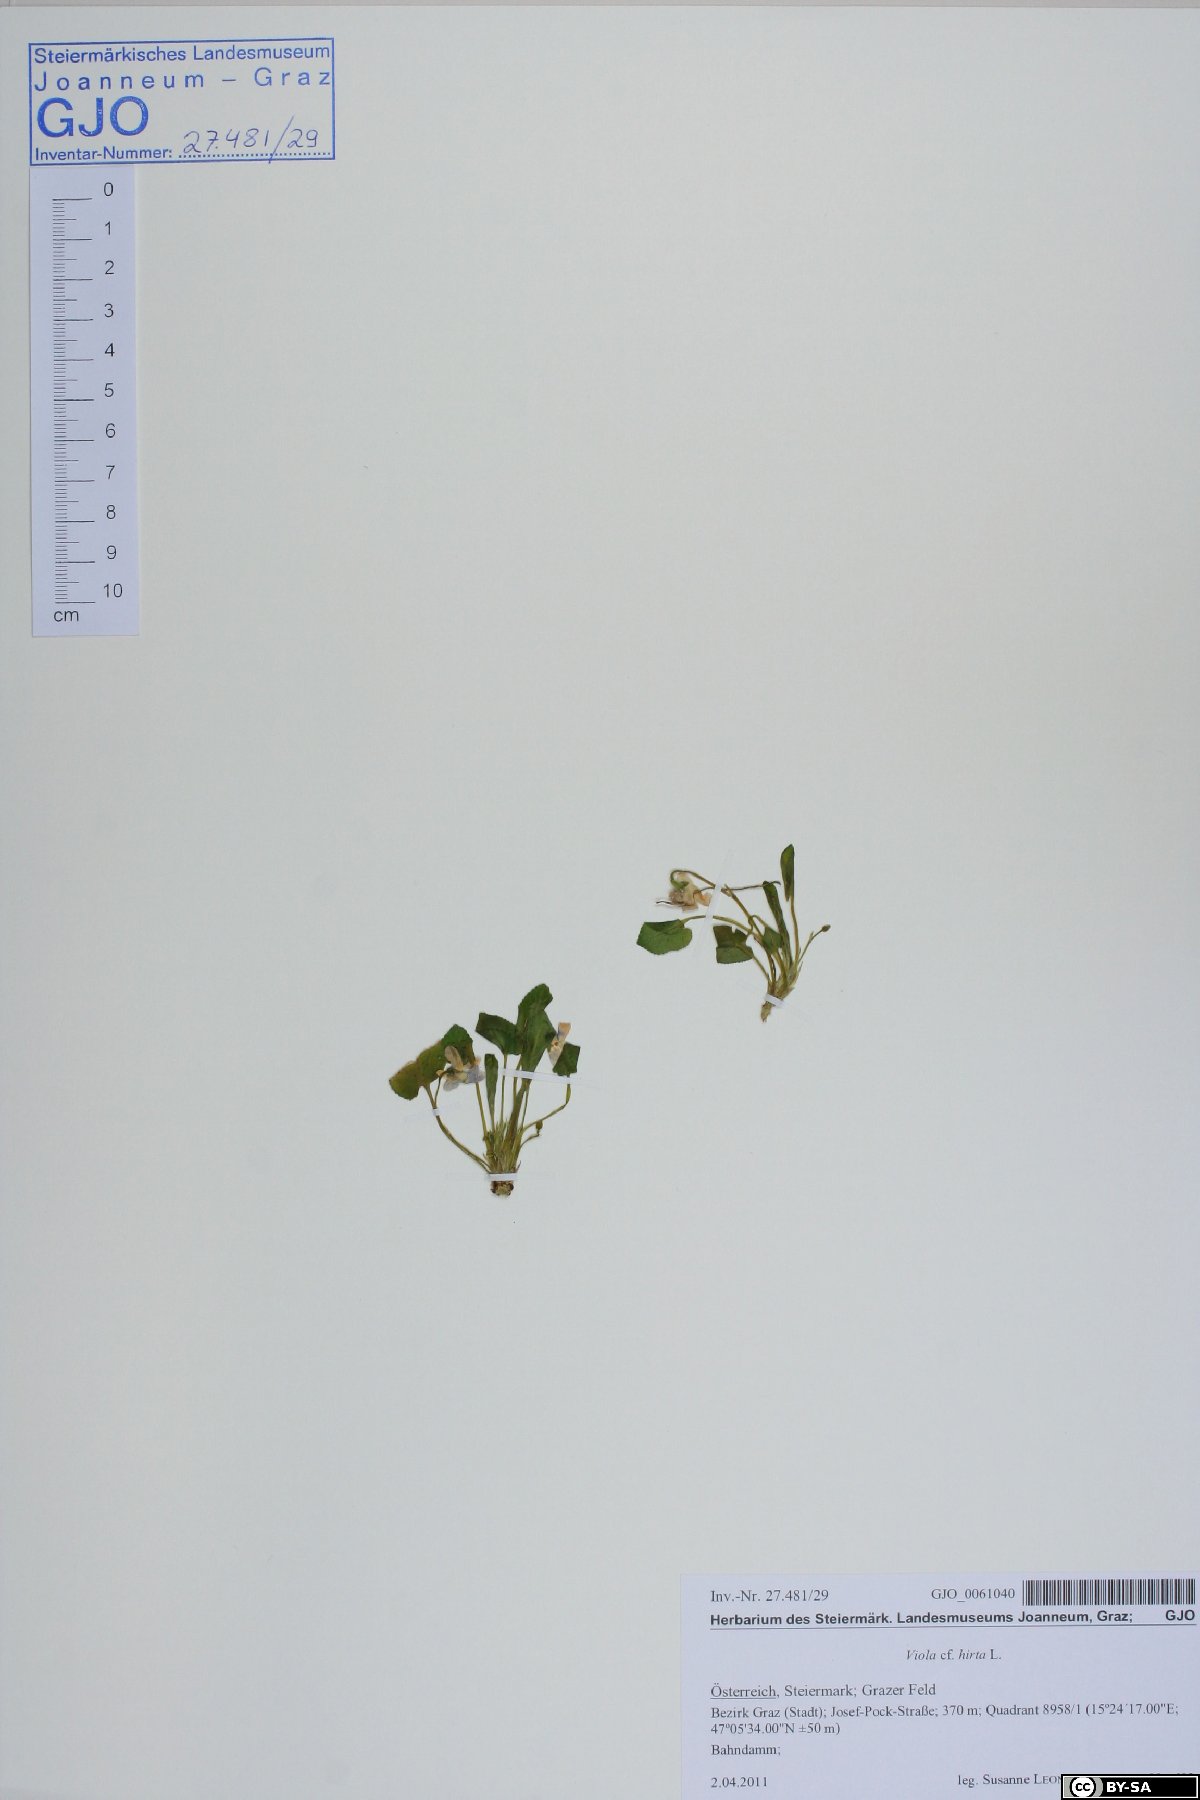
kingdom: Plantae
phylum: Tracheophyta
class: Magnoliopsida
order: Malpighiales
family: Violaceae
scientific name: Violaceae
